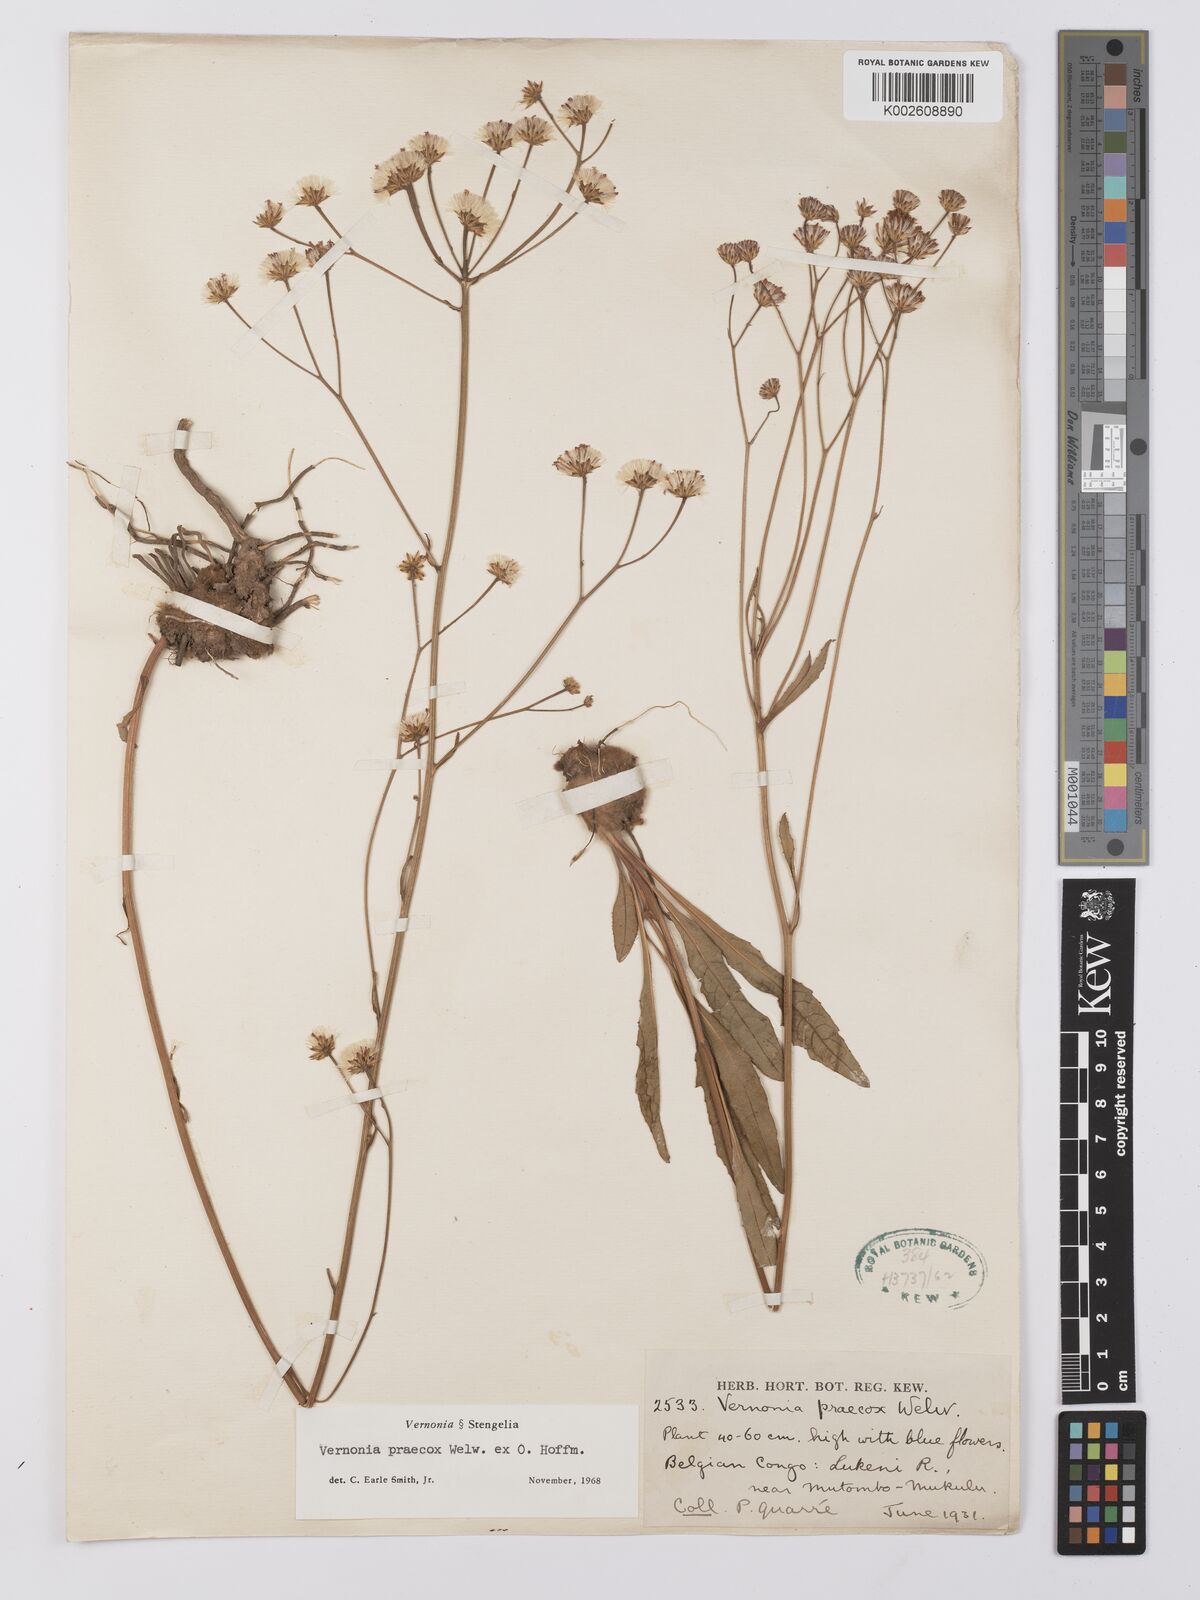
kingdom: Plantae
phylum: Tracheophyta
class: Magnoliopsida
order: Asterales
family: Asteraceae
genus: Vernonella
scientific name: Vernonella praecox
